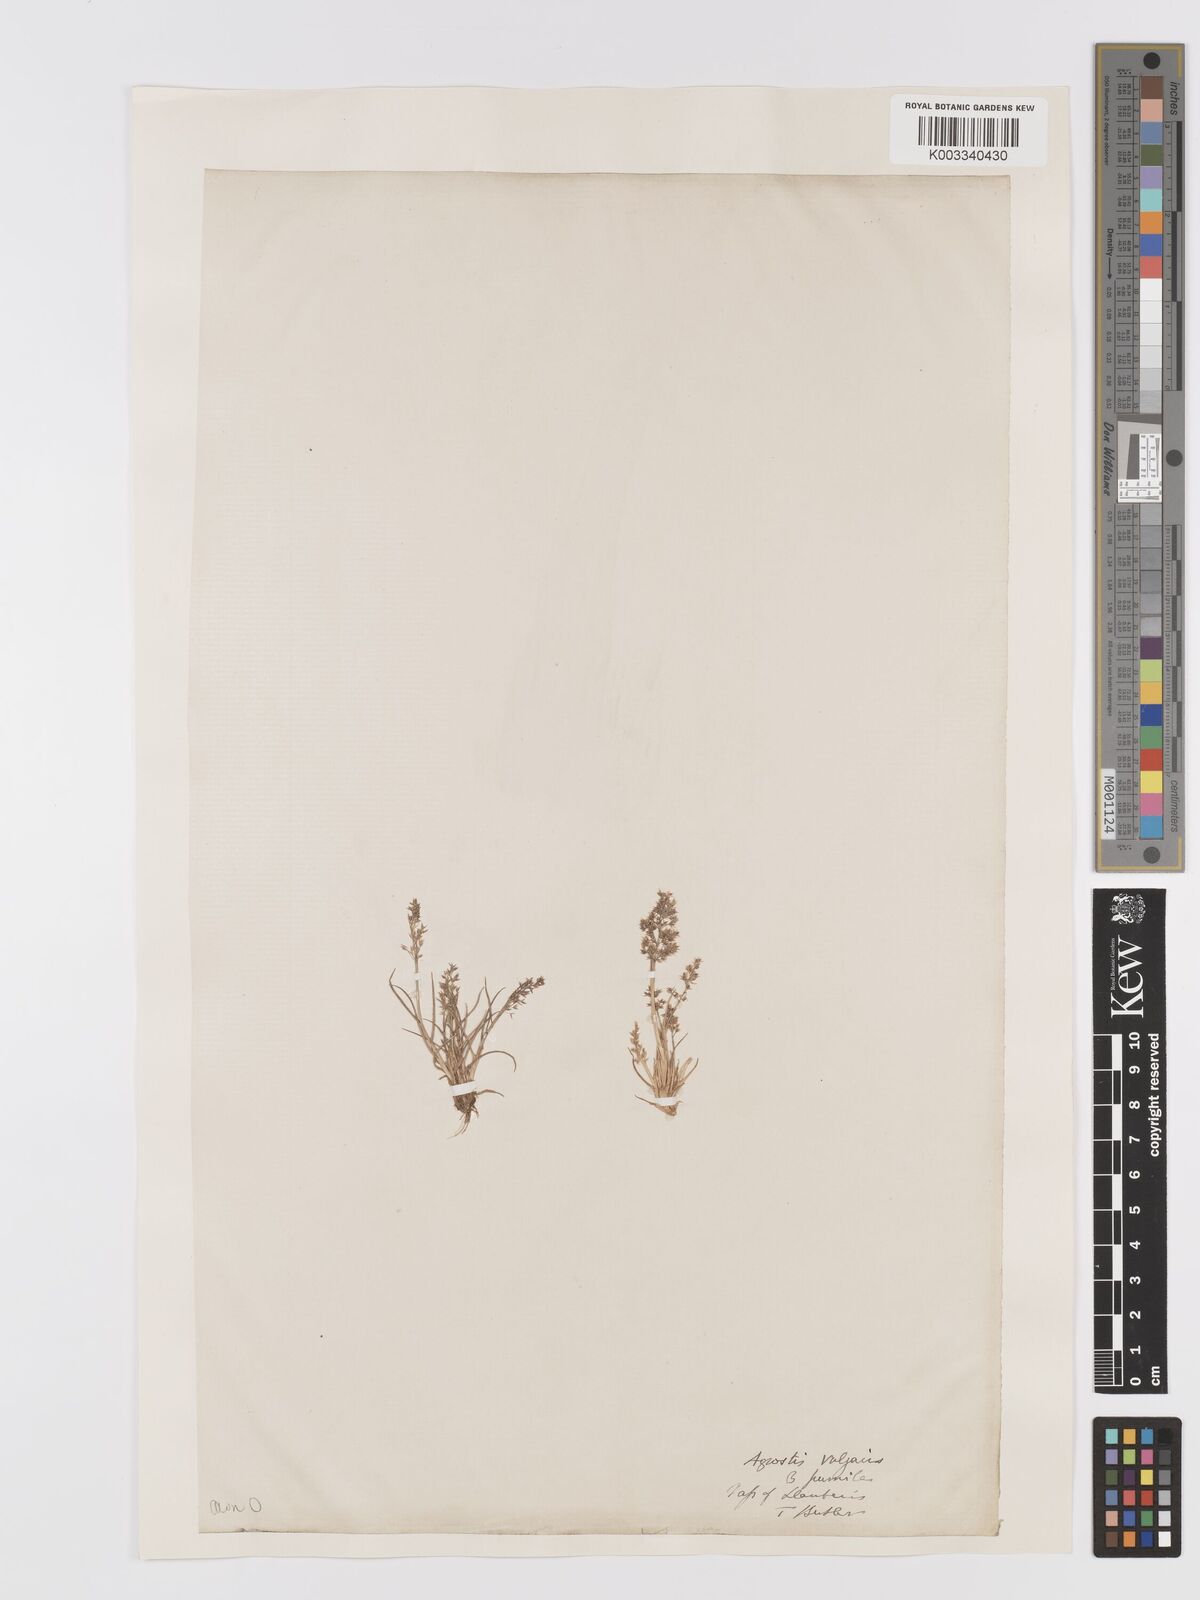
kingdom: Plantae
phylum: Tracheophyta
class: Liliopsida
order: Poales
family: Poaceae
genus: Agrostis
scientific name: Agrostis capillaris
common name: Colonial bentgrass
